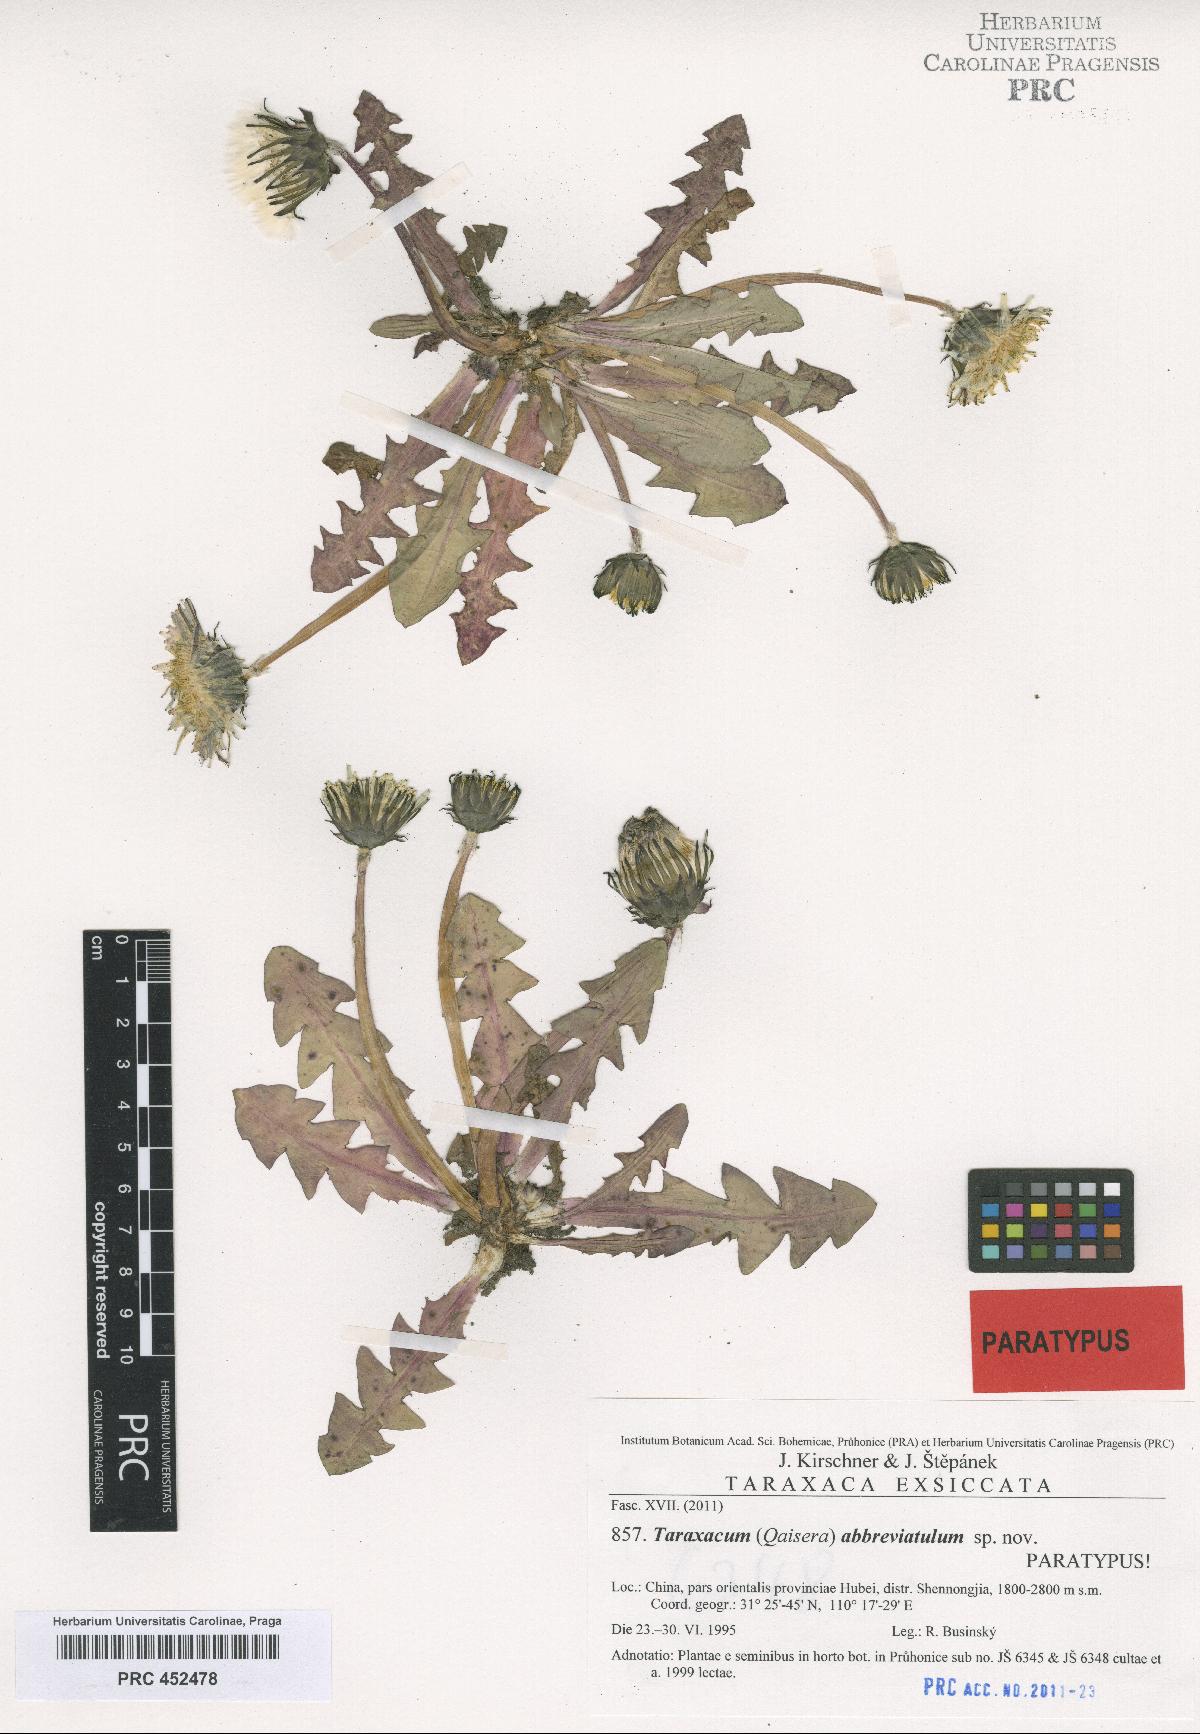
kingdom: Plantae
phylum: Tracheophyta
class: Magnoliopsida
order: Asterales
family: Asteraceae
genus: Taraxacum
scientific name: Taraxacum abbreviatulum
